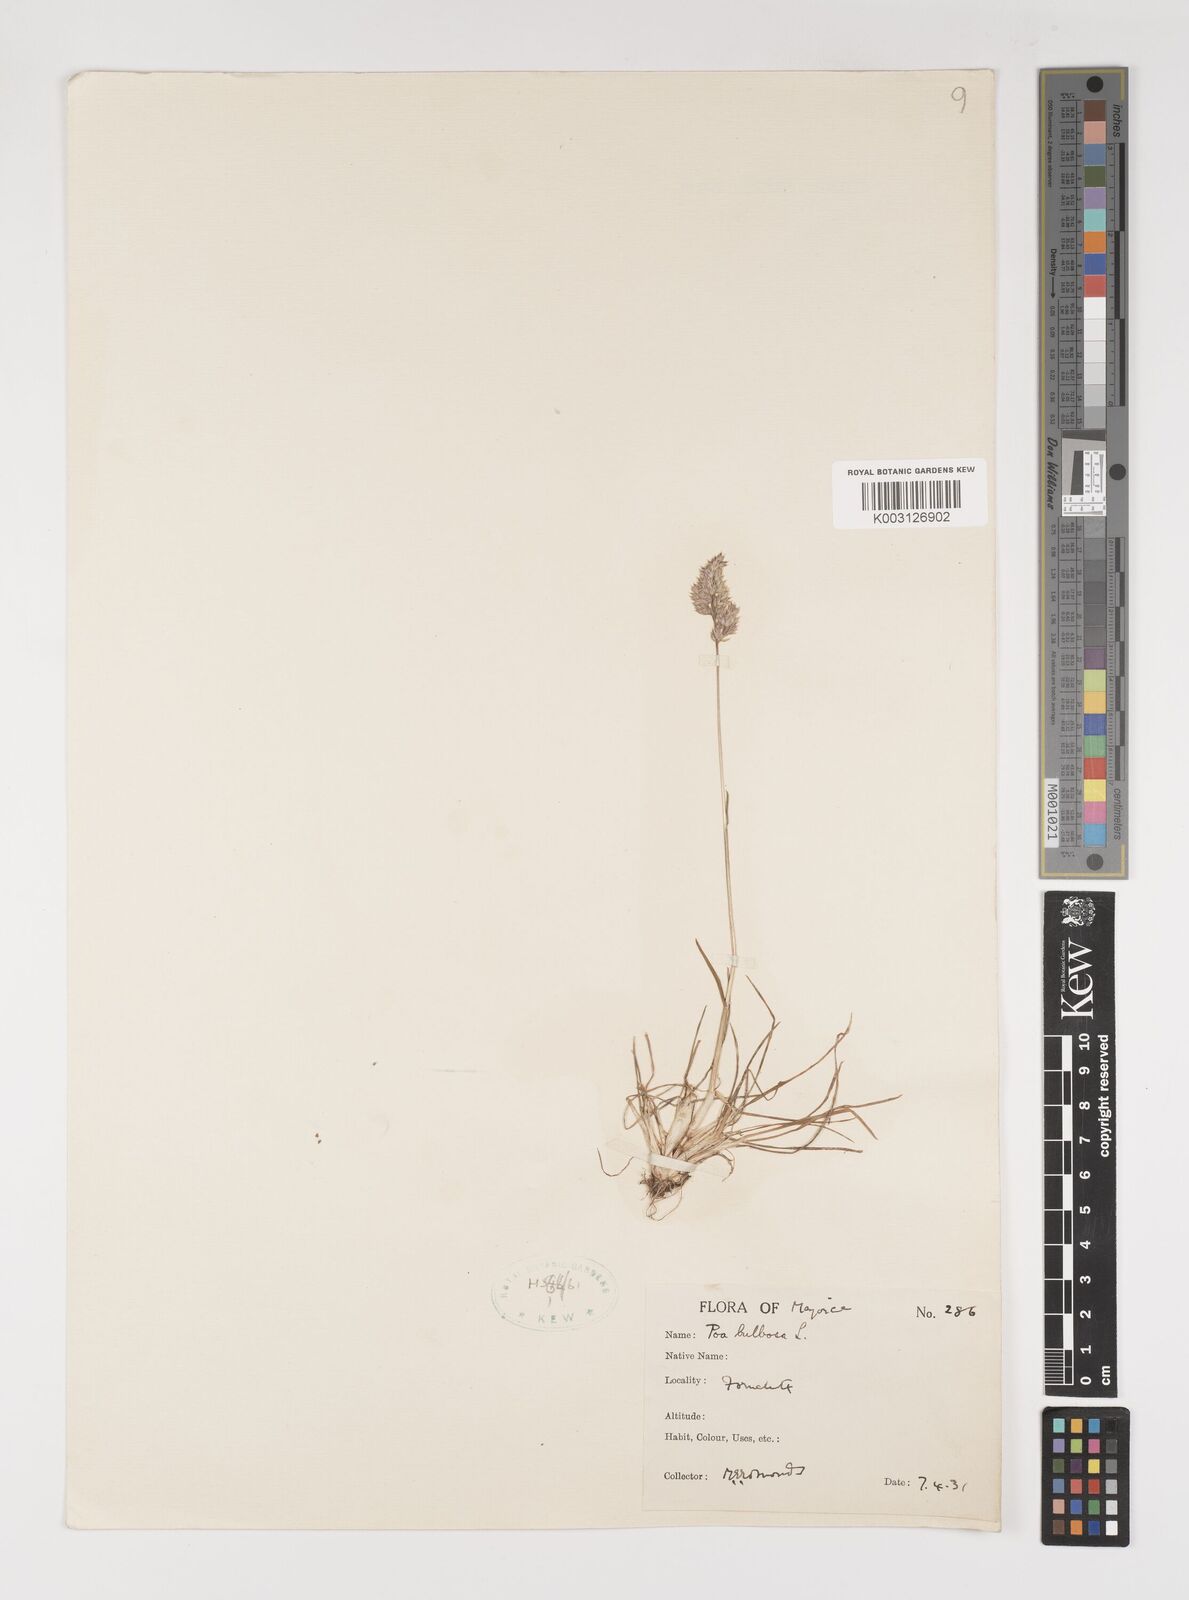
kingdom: Plantae
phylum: Tracheophyta
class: Liliopsida
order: Poales
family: Poaceae
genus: Poa
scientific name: Poa bulbosa
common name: Bulbous bluegrass
